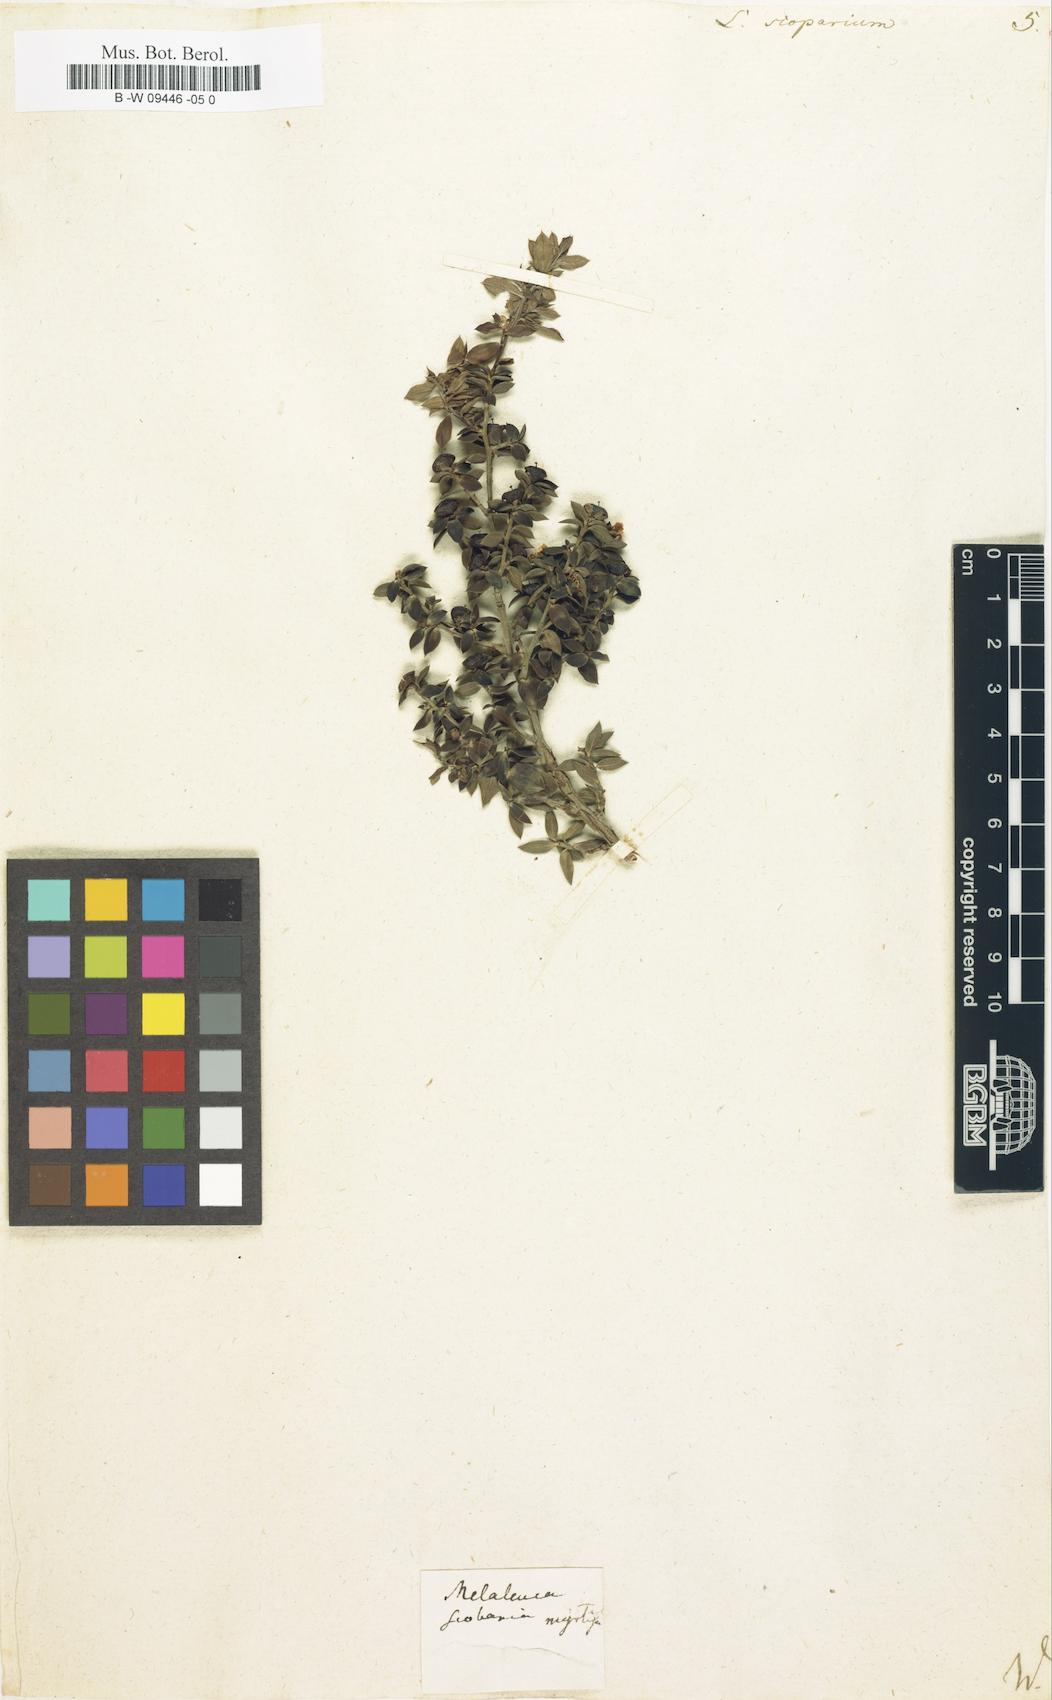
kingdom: Plantae
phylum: Tracheophyta
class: Magnoliopsida
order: Myrtales
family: Myrtaceae
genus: Leptospermum
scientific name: Leptospermum scoparium
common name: Broom tea-tree
